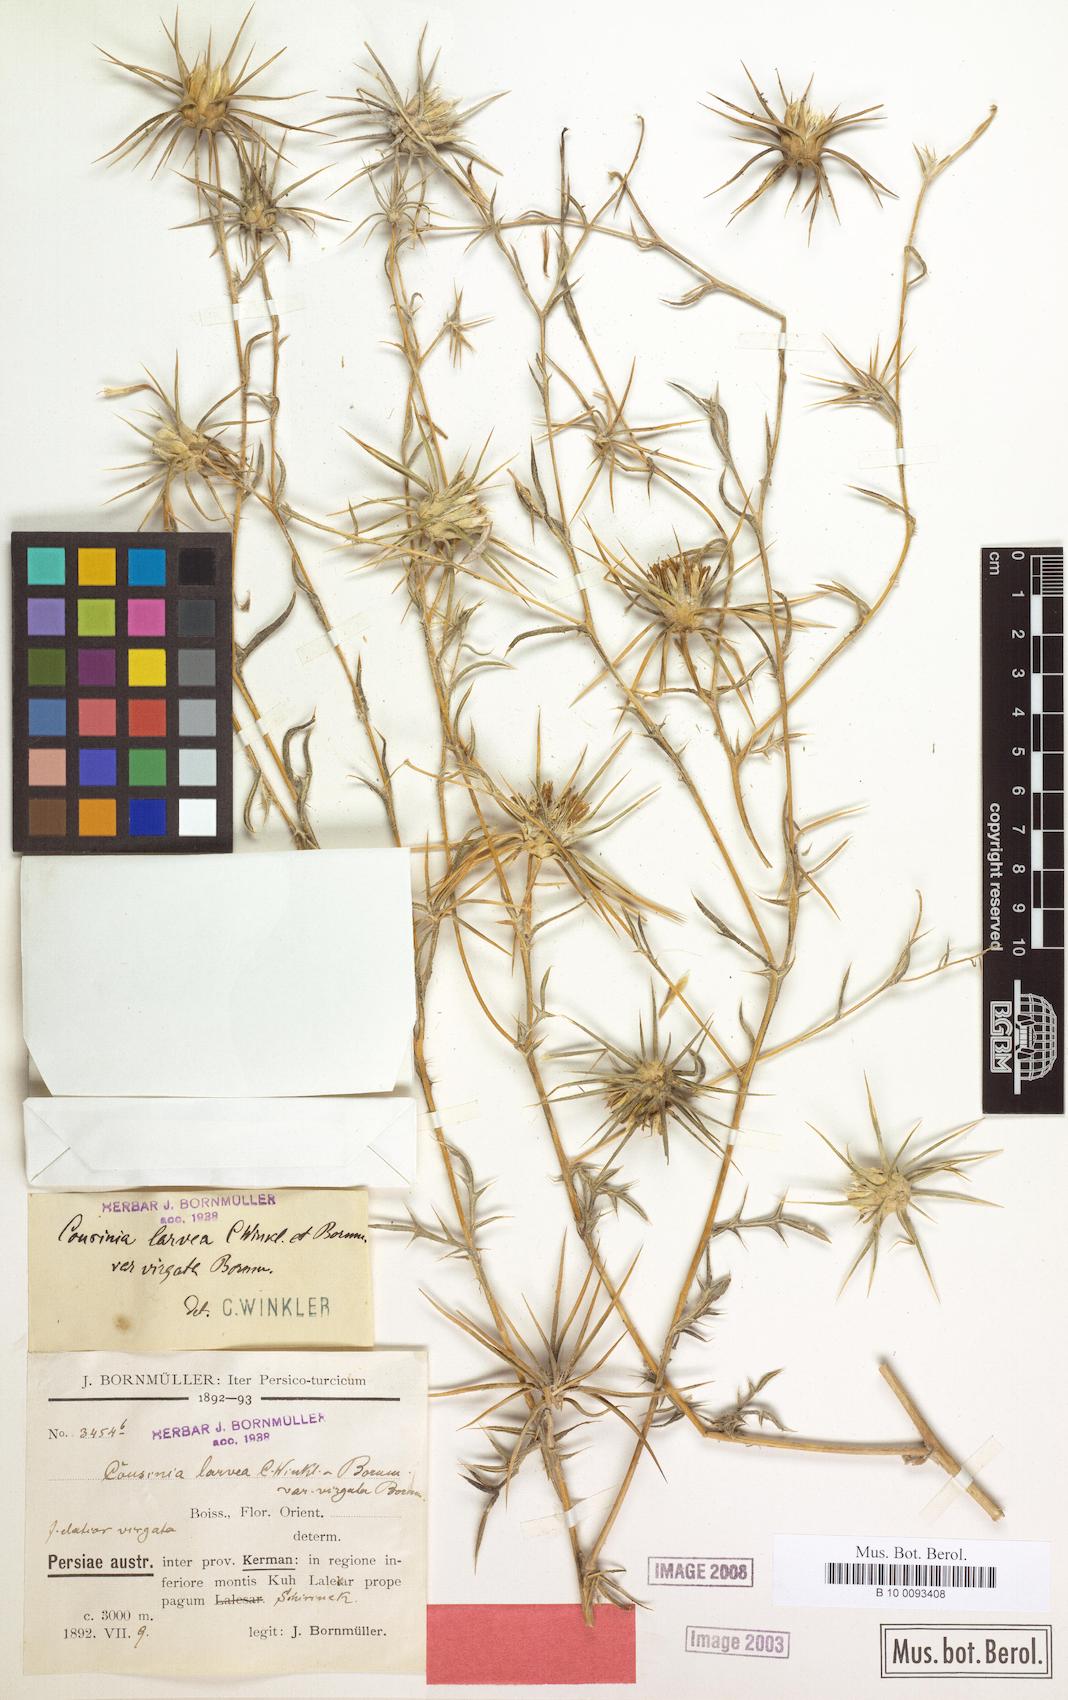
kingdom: Plantae
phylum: Tracheophyta
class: Magnoliopsida
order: Asterales
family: Asteraceae
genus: Cousinia
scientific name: Cousinia calcitrapa
